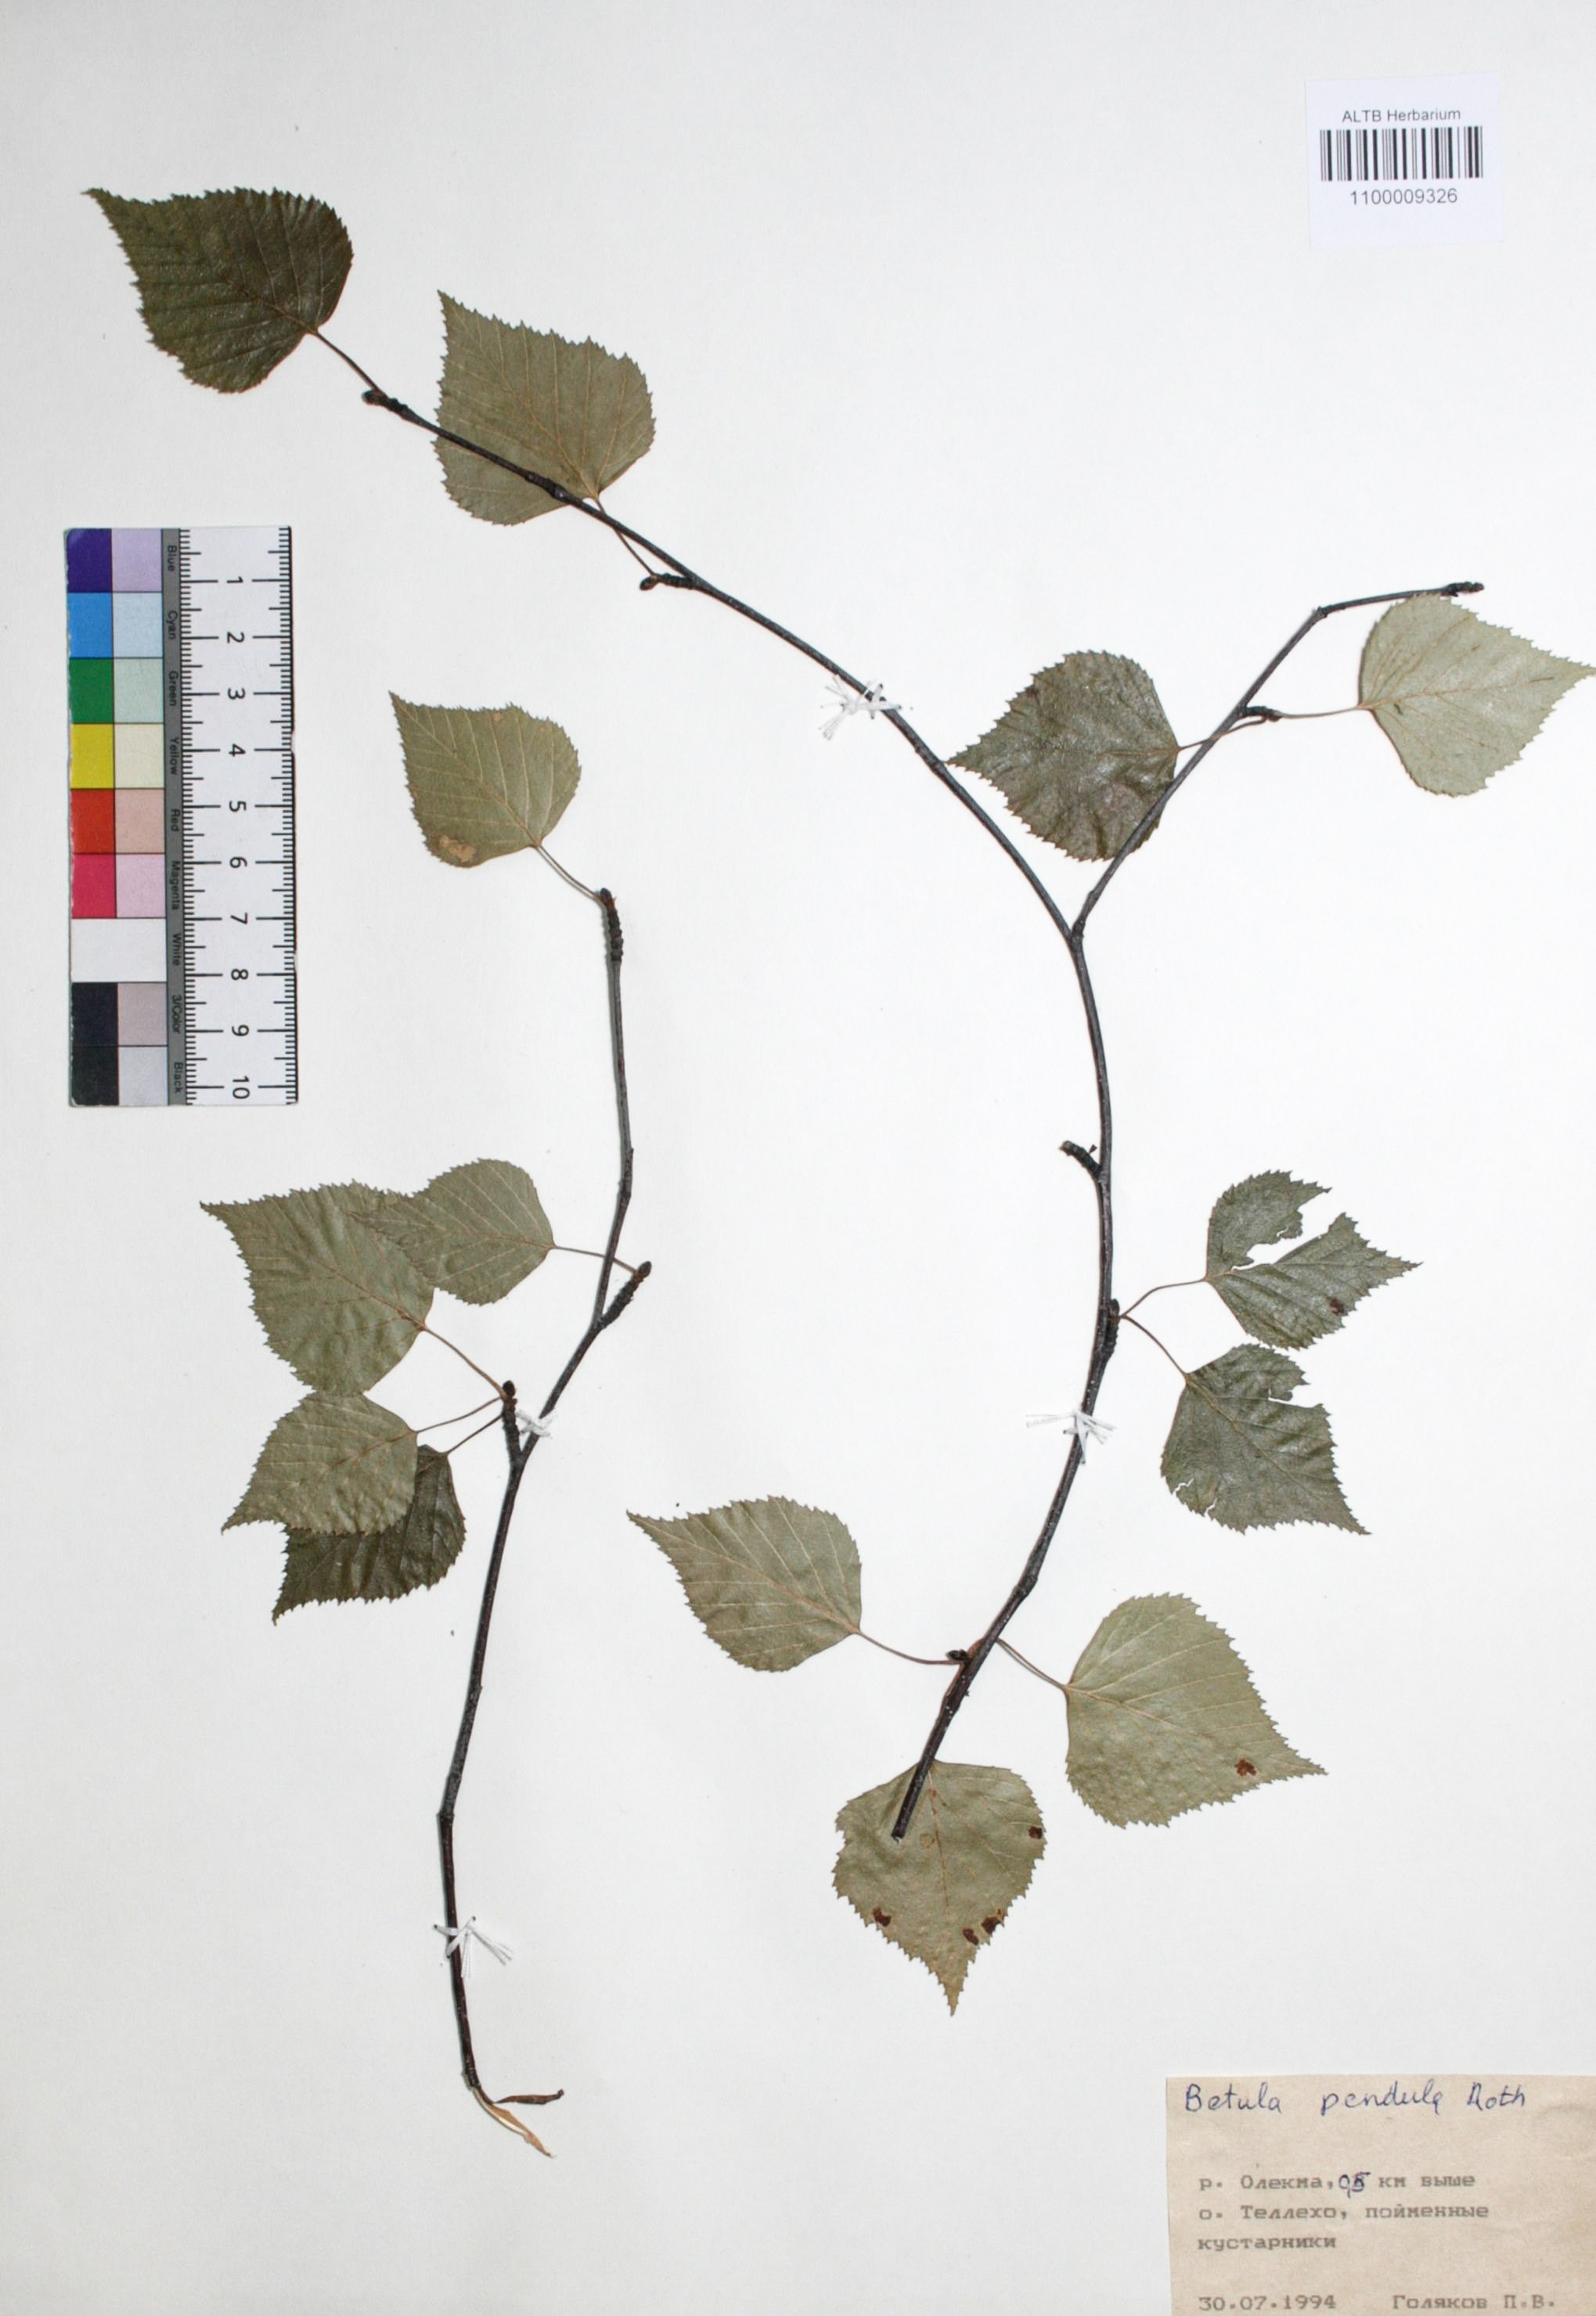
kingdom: Plantae
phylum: Tracheophyta
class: Magnoliopsida
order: Fagales
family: Betulaceae
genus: Betula
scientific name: Betula pendula
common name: Silver birch
